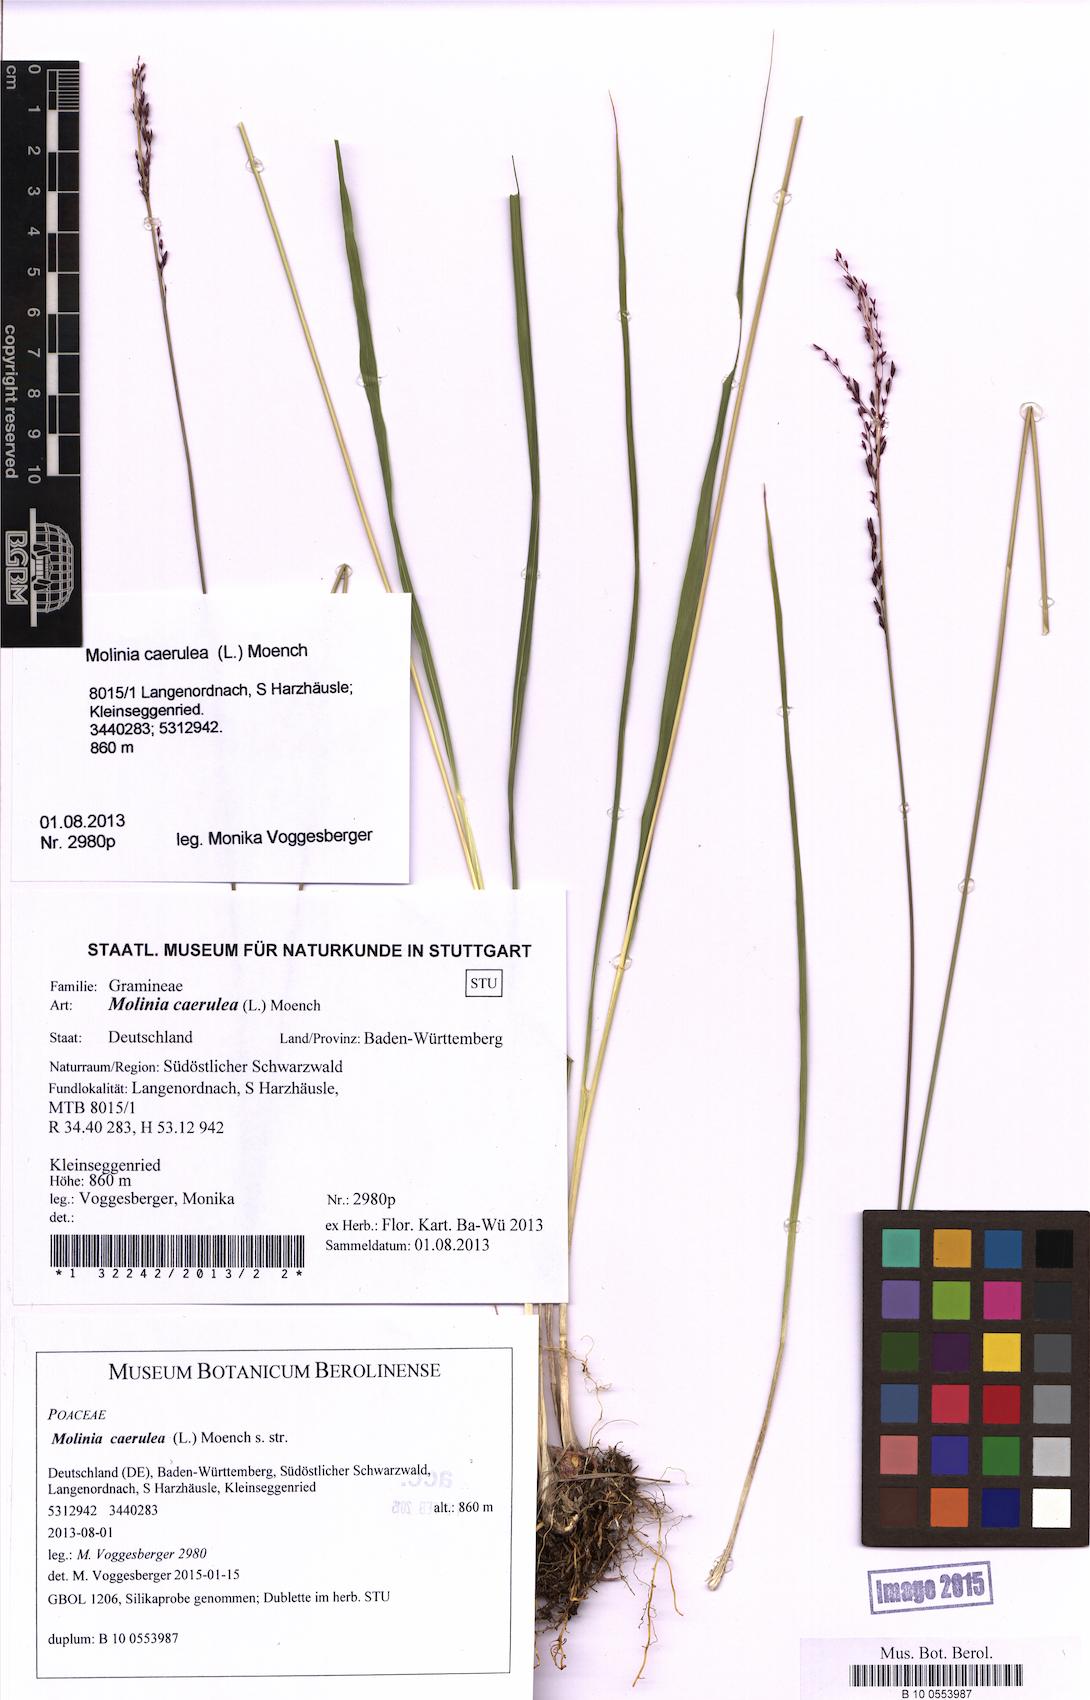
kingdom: Plantae
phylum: Tracheophyta
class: Liliopsida
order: Poales
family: Poaceae
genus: Molinia
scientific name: Molinia caerulea
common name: Purple moor-grass
